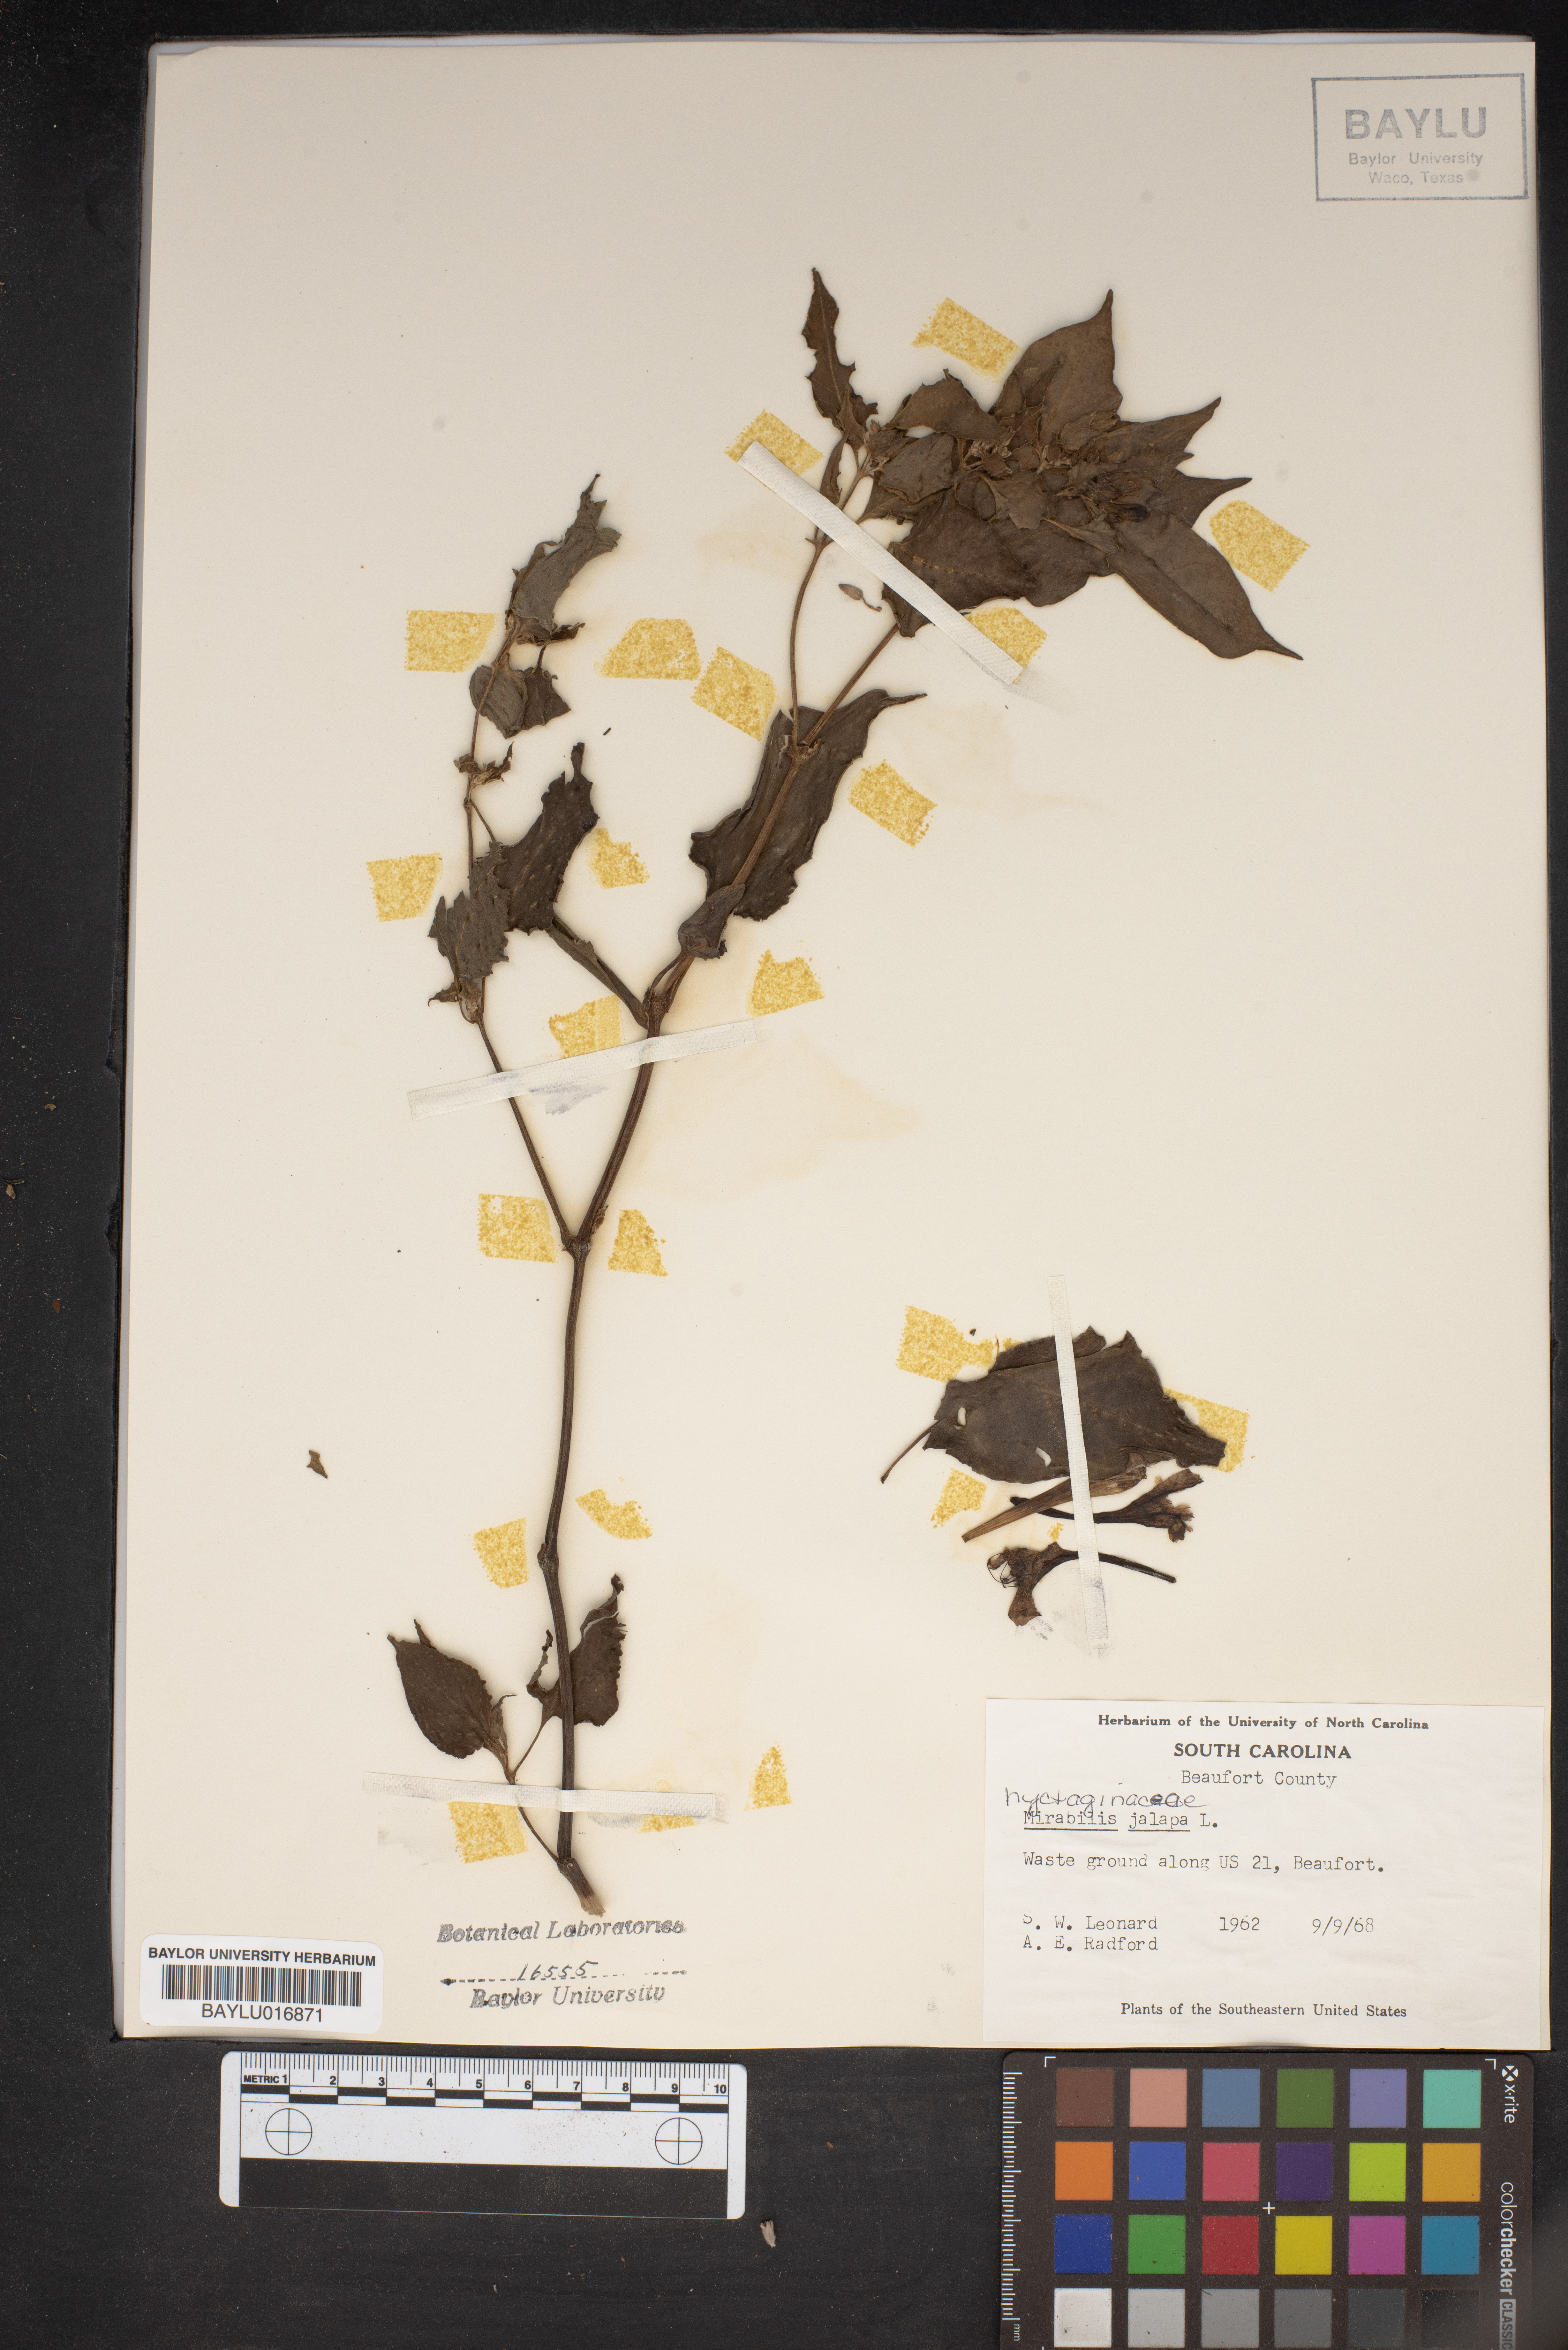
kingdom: Plantae
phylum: Tracheophyta
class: Magnoliopsida
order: Caryophyllales
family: Nyctaginaceae
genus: Mirabilis
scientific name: Mirabilis jalapa
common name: Marvel-of-peru
